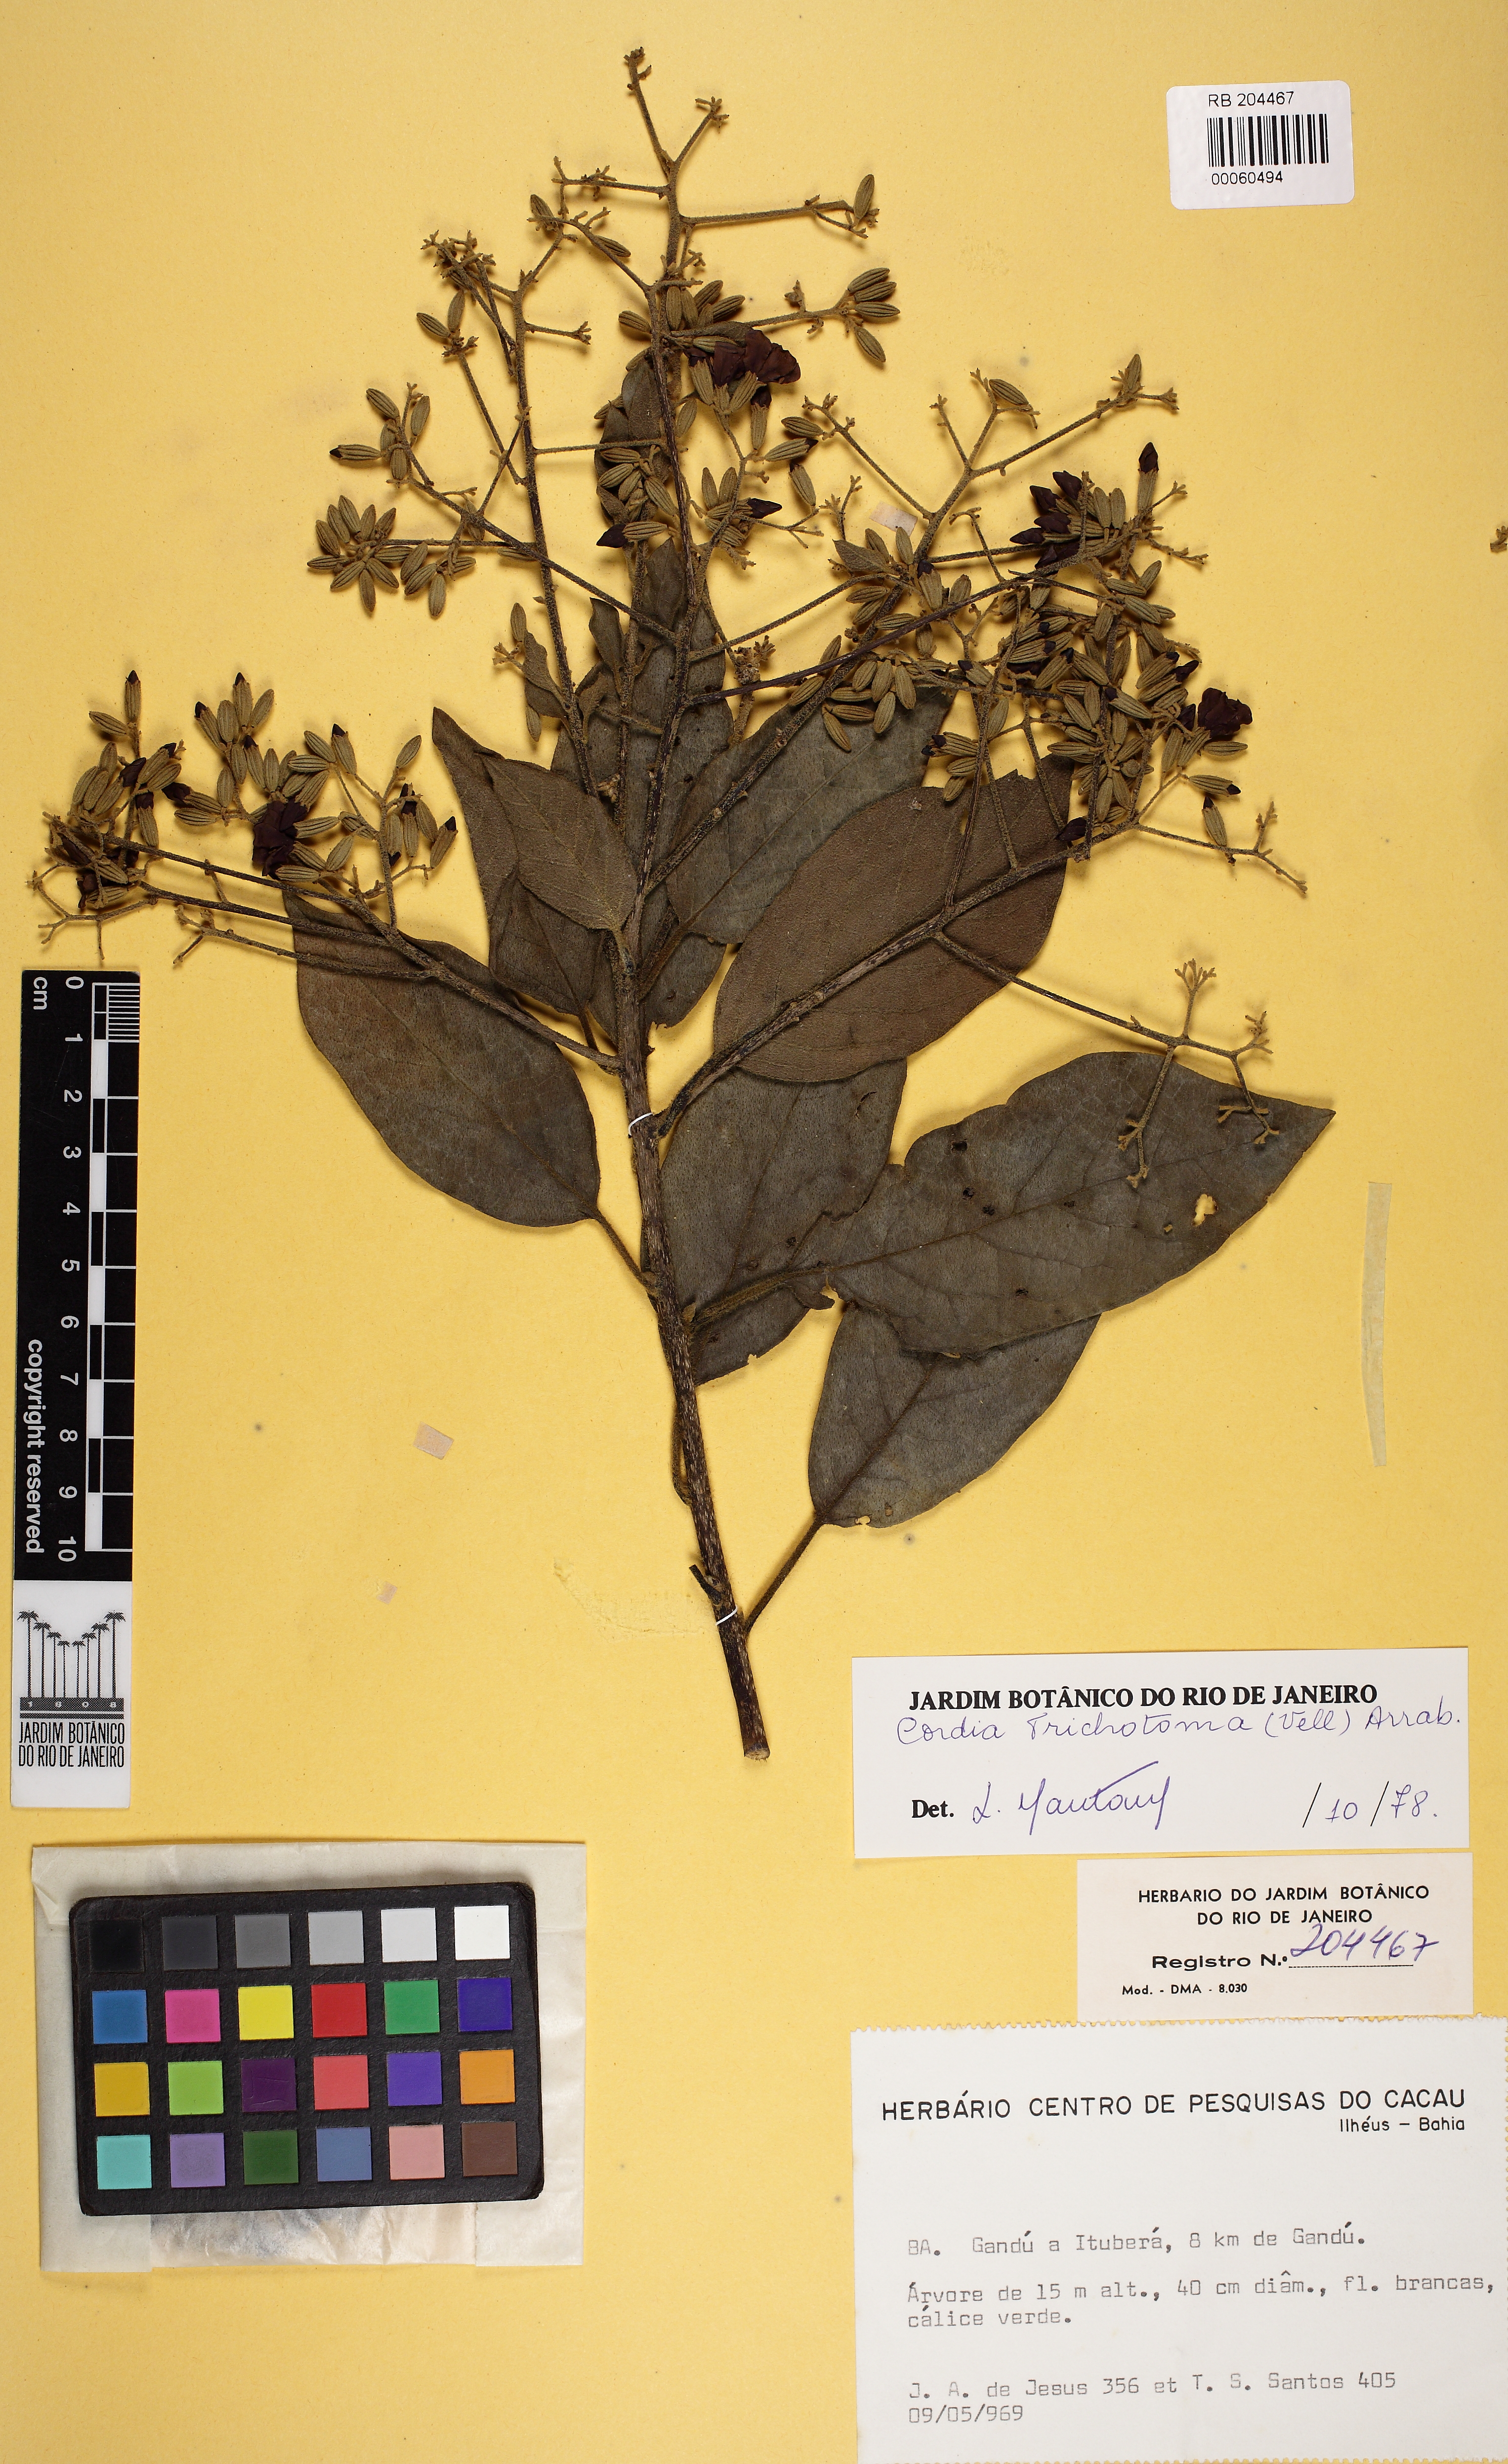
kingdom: Plantae
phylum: Tracheophyta
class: Magnoliopsida
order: Boraginales
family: Cordiaceae
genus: Cordia
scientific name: Cordia trichotoma
